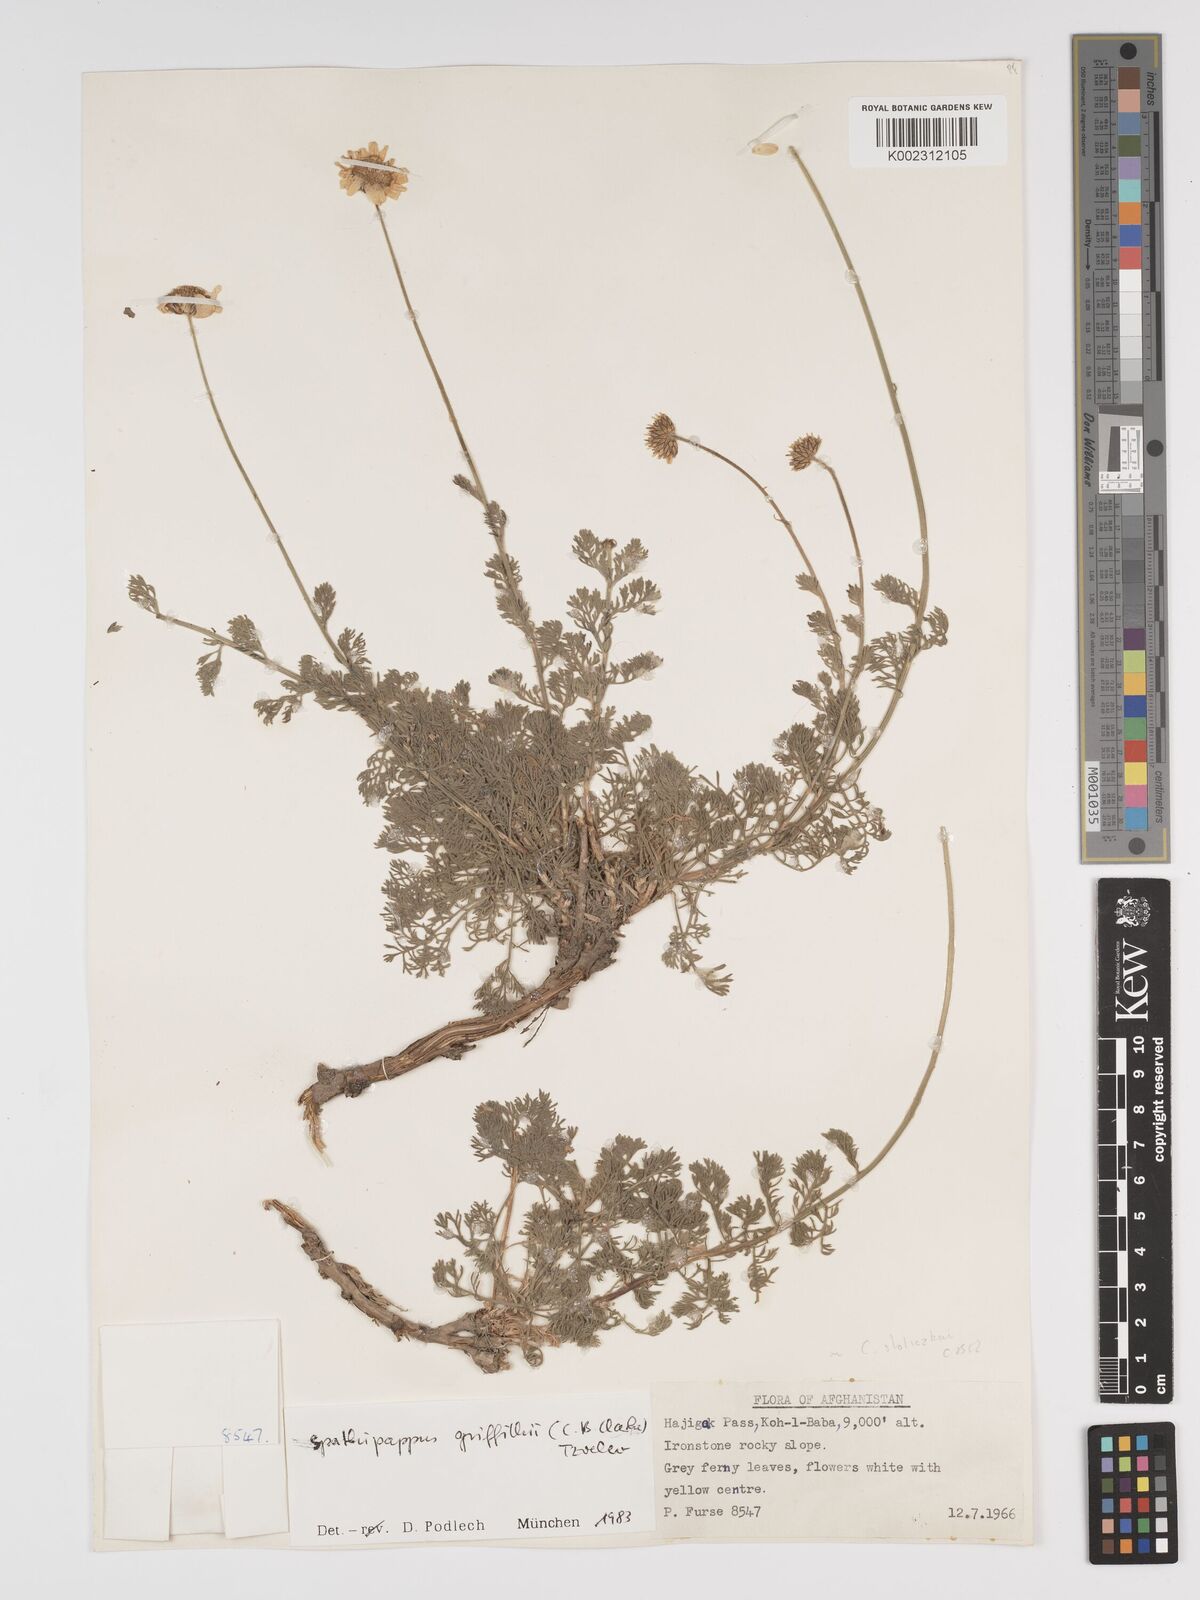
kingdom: Plantae
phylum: Tracheophyta
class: Magnoliopsida
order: Asterales
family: Asteraceae
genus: Tanacetum
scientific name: Tanacetum griffithii
